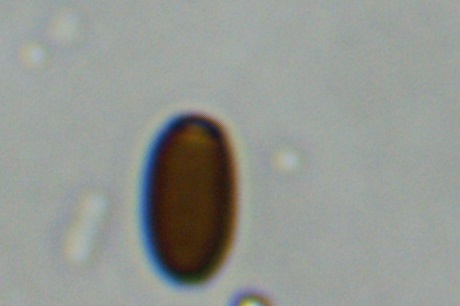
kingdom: Fungi
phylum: Basidiomycota
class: Agaricomycetes
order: Agaricales
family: Psathyrellaceae
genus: Coprinellus
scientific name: Coprinellus pusillulus
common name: lillebitte blækhat
